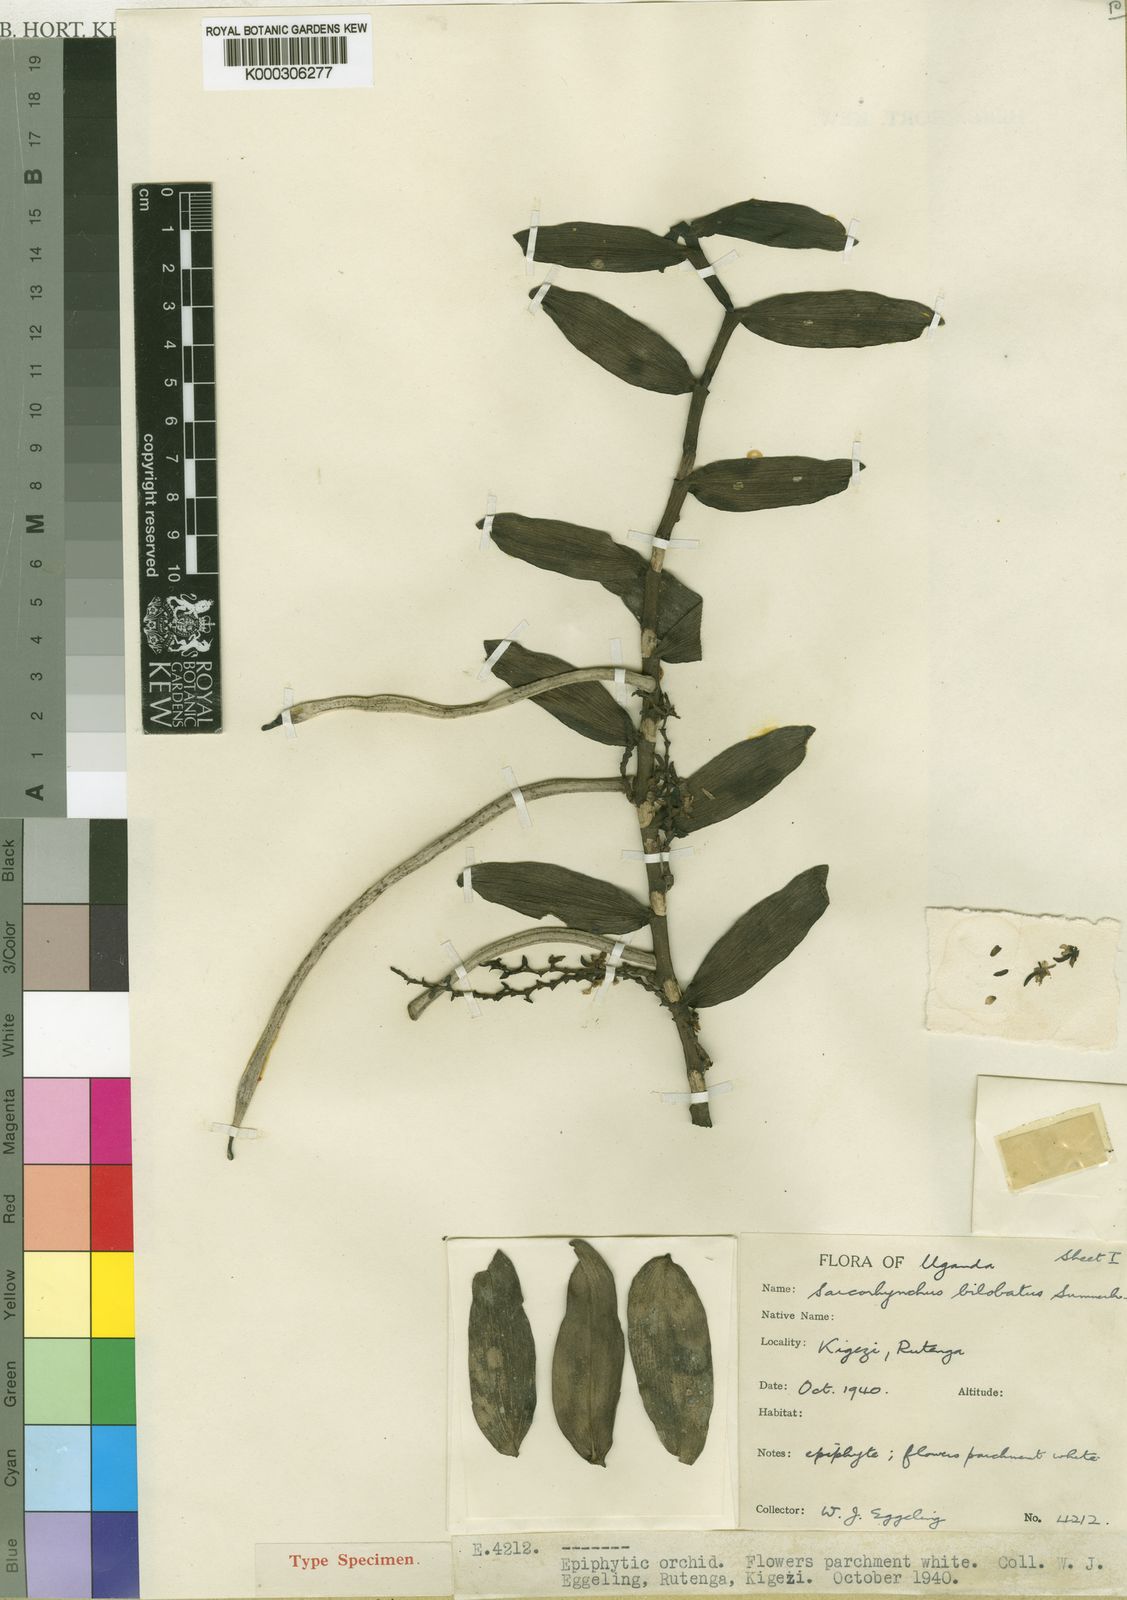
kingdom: Plantae
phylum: Tracheophyta
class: Liliopsida
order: Asparagales
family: Orchidaceae
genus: Rhipidoglossum
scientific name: Rhipidoglossum bilobatum
